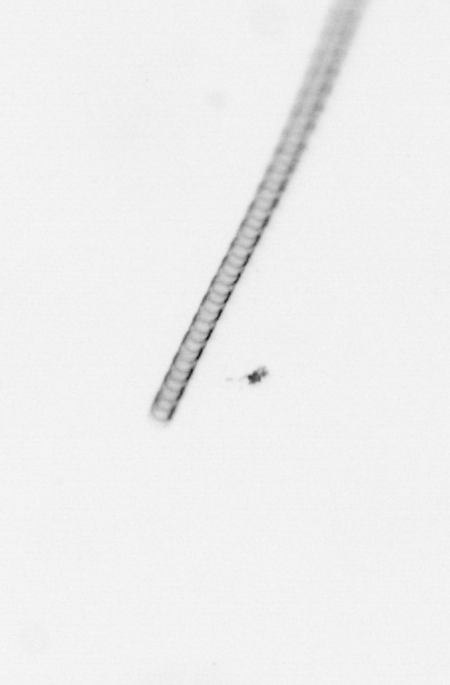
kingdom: Chromista
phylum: Ochrophyta
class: Bacillariophyceae
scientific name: Bacillariophyceae
